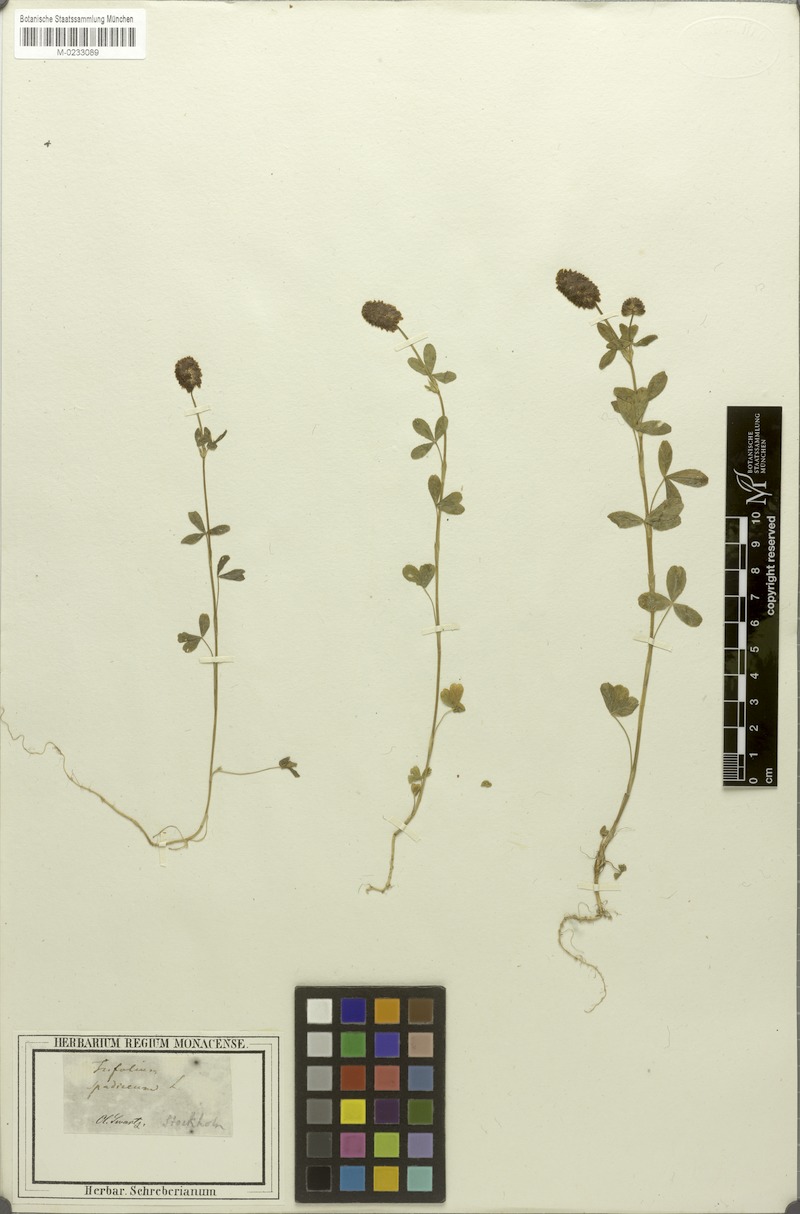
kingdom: Plantae
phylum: Tracheophyta
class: Magnoliopsida
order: Fabales
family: Fabaceae
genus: Trifolium
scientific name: Trifolium spadiceum
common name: Brown moor clover
